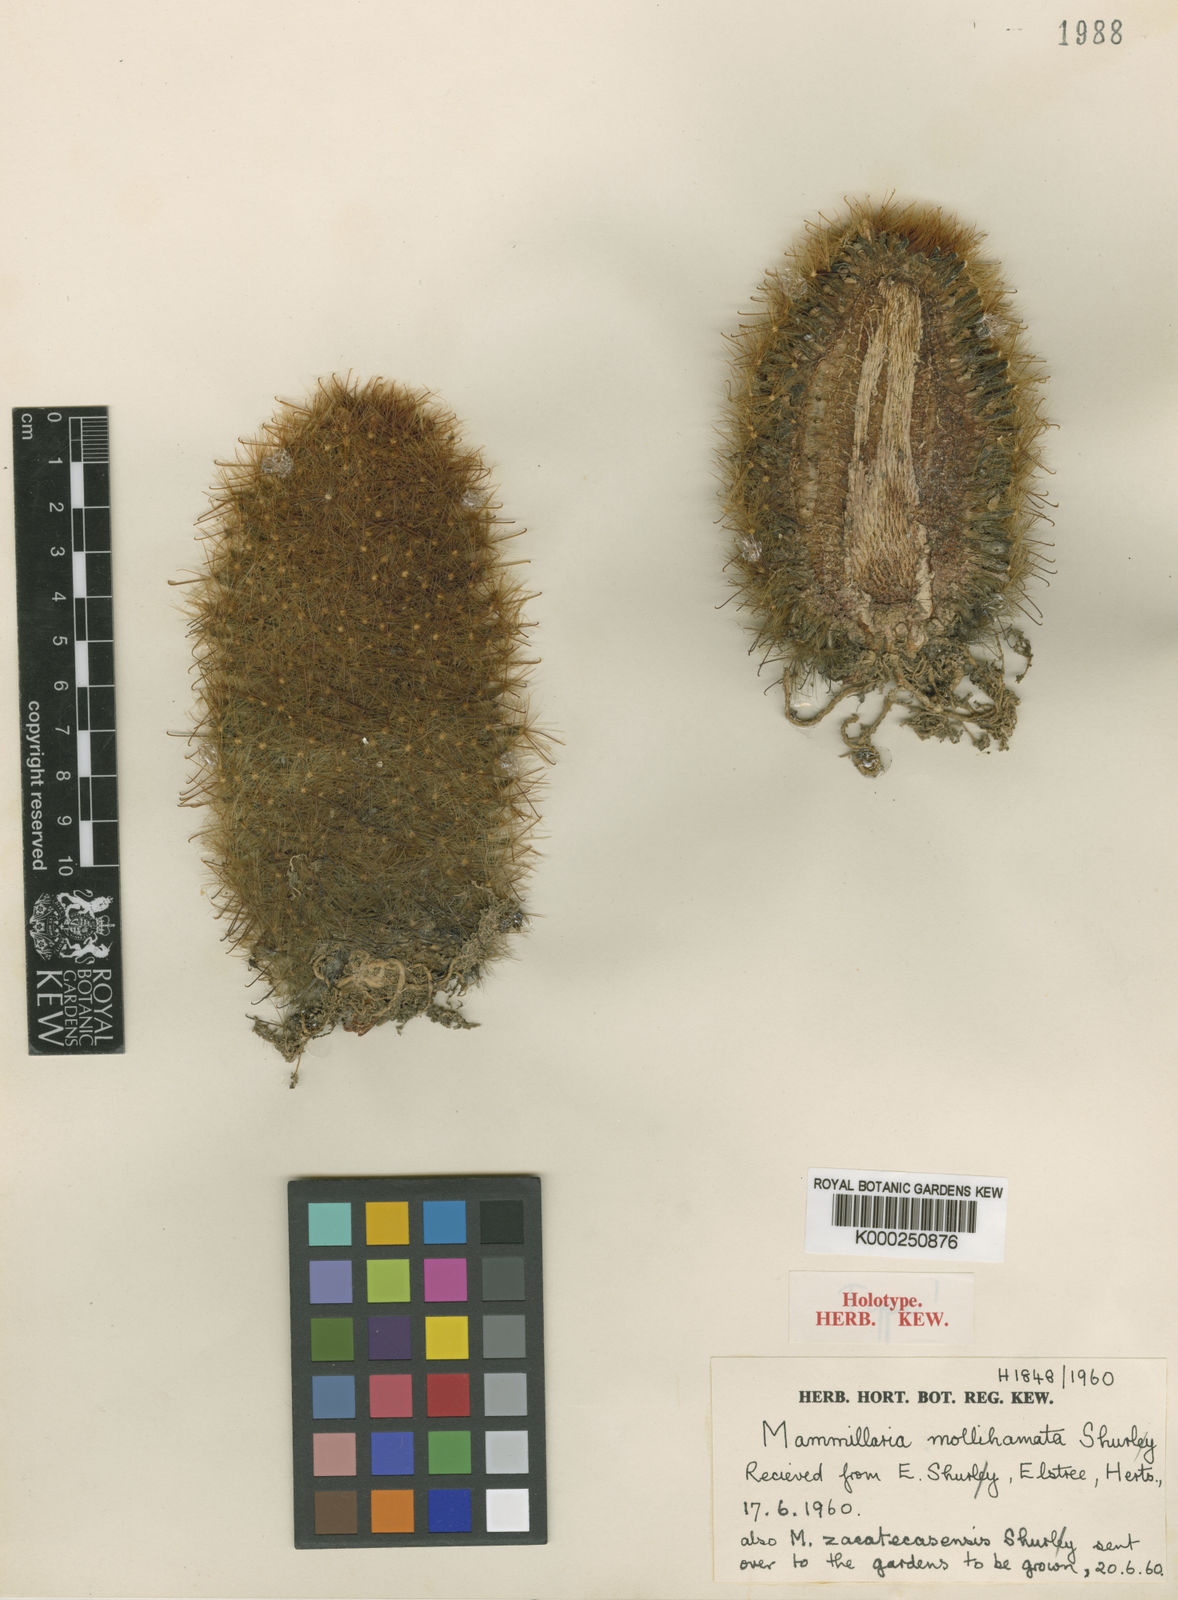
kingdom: Plantae
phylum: Tracheophyta
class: Magnoliopsida
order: Caryophyllales
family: Cactaceae
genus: Mammillaria
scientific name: Mammillaria crinita
